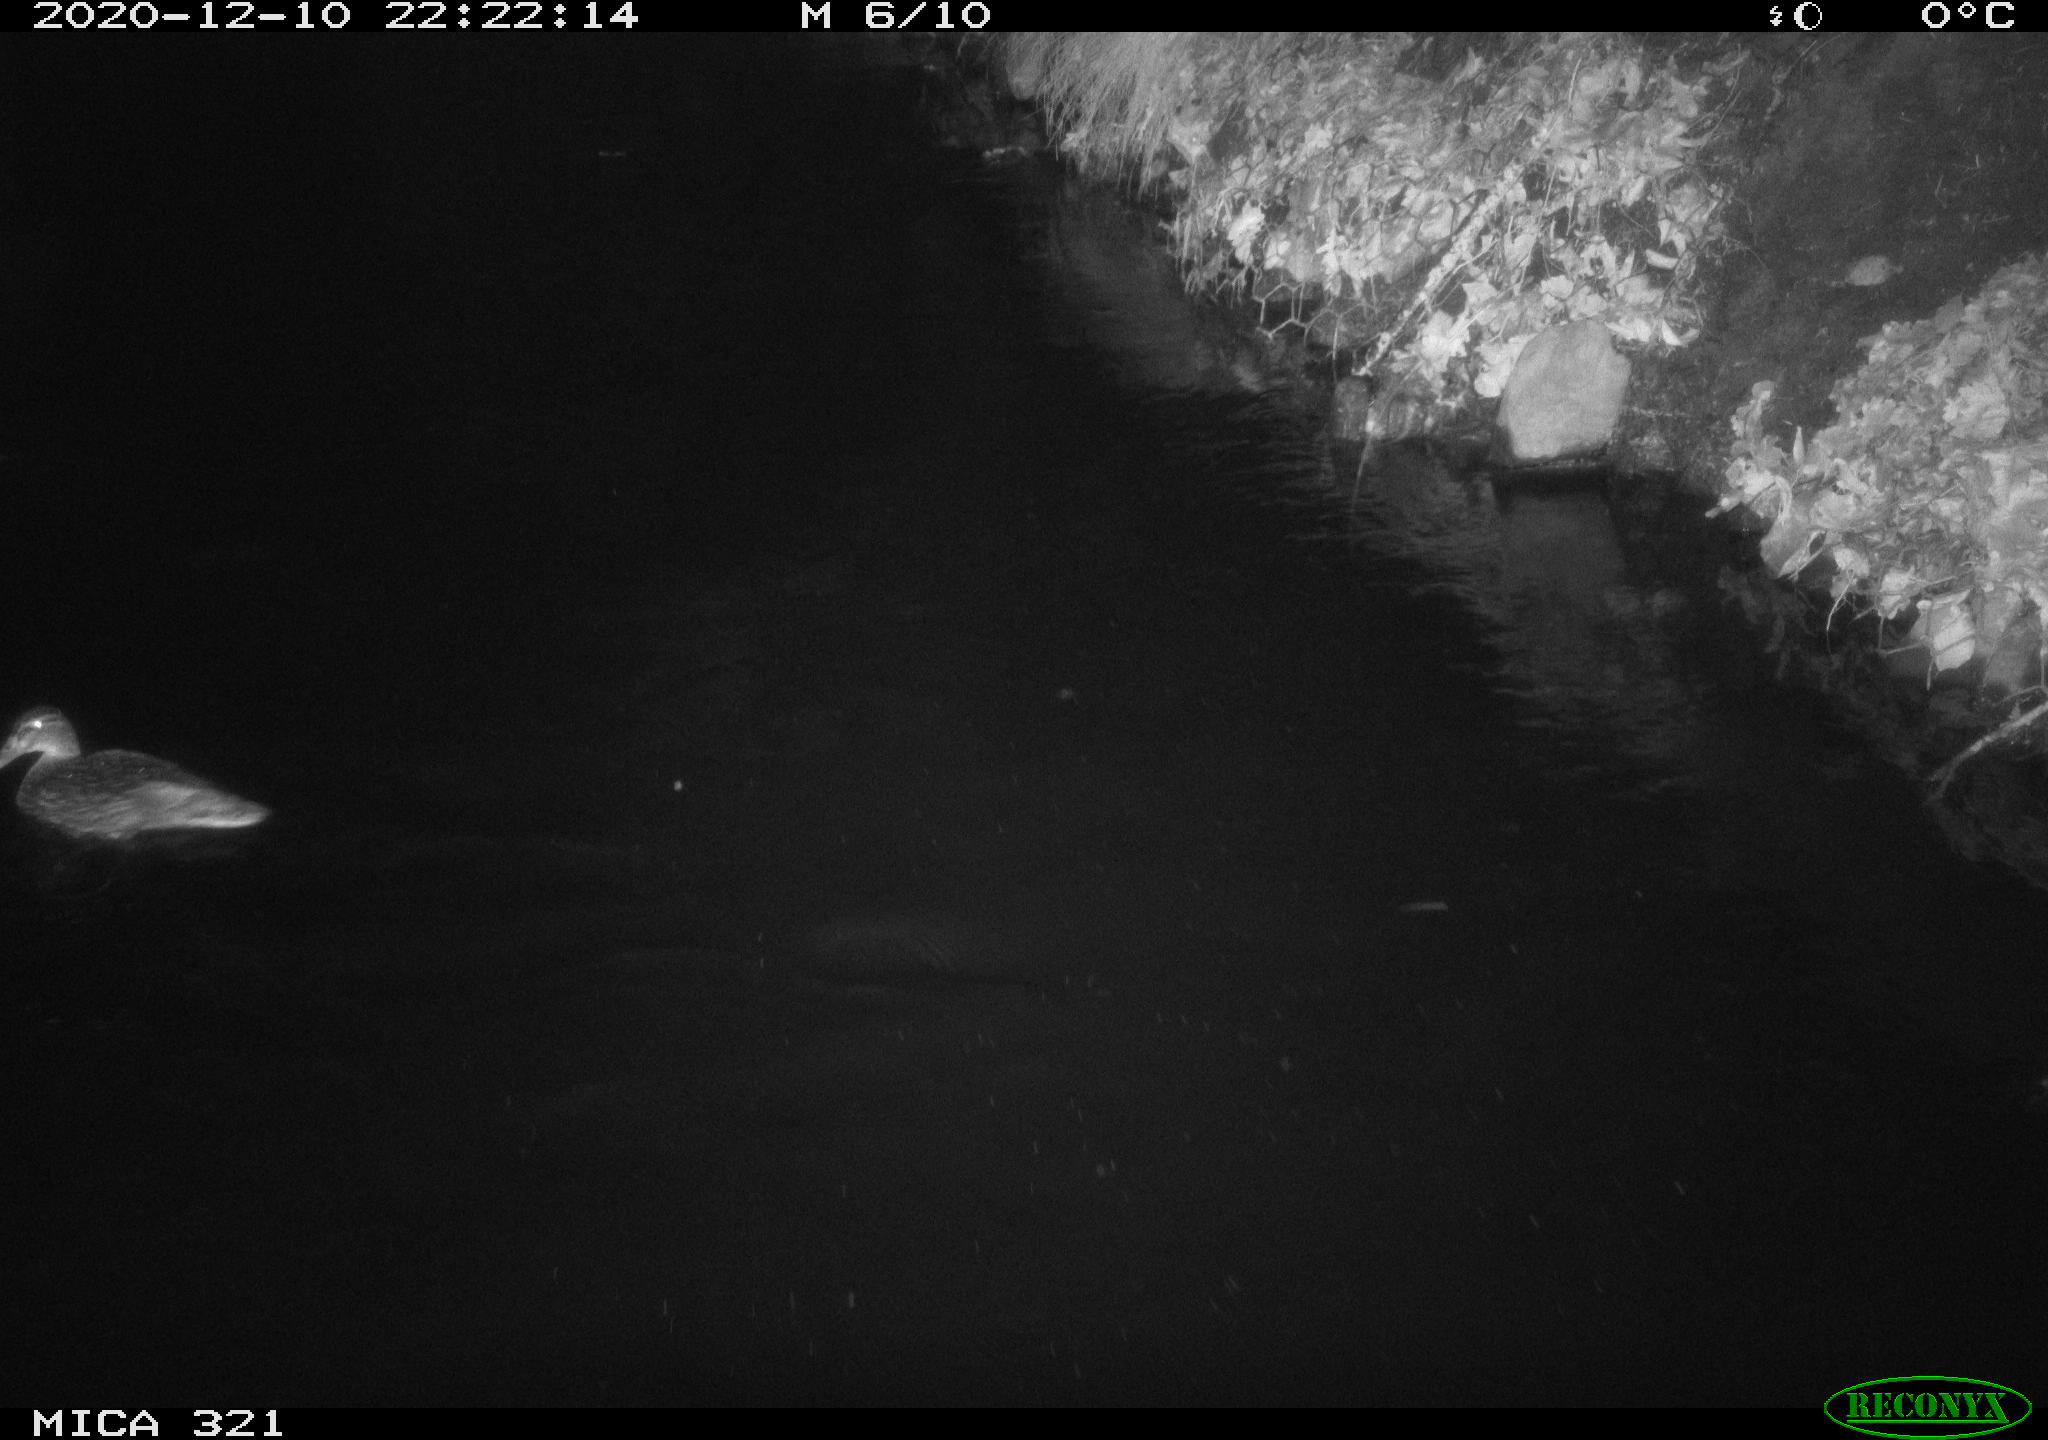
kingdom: Animalia
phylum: Chordata
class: Aves
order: Anseriformes
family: Anatidae
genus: Anas
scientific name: Anas platyrhynchos
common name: Mallard
